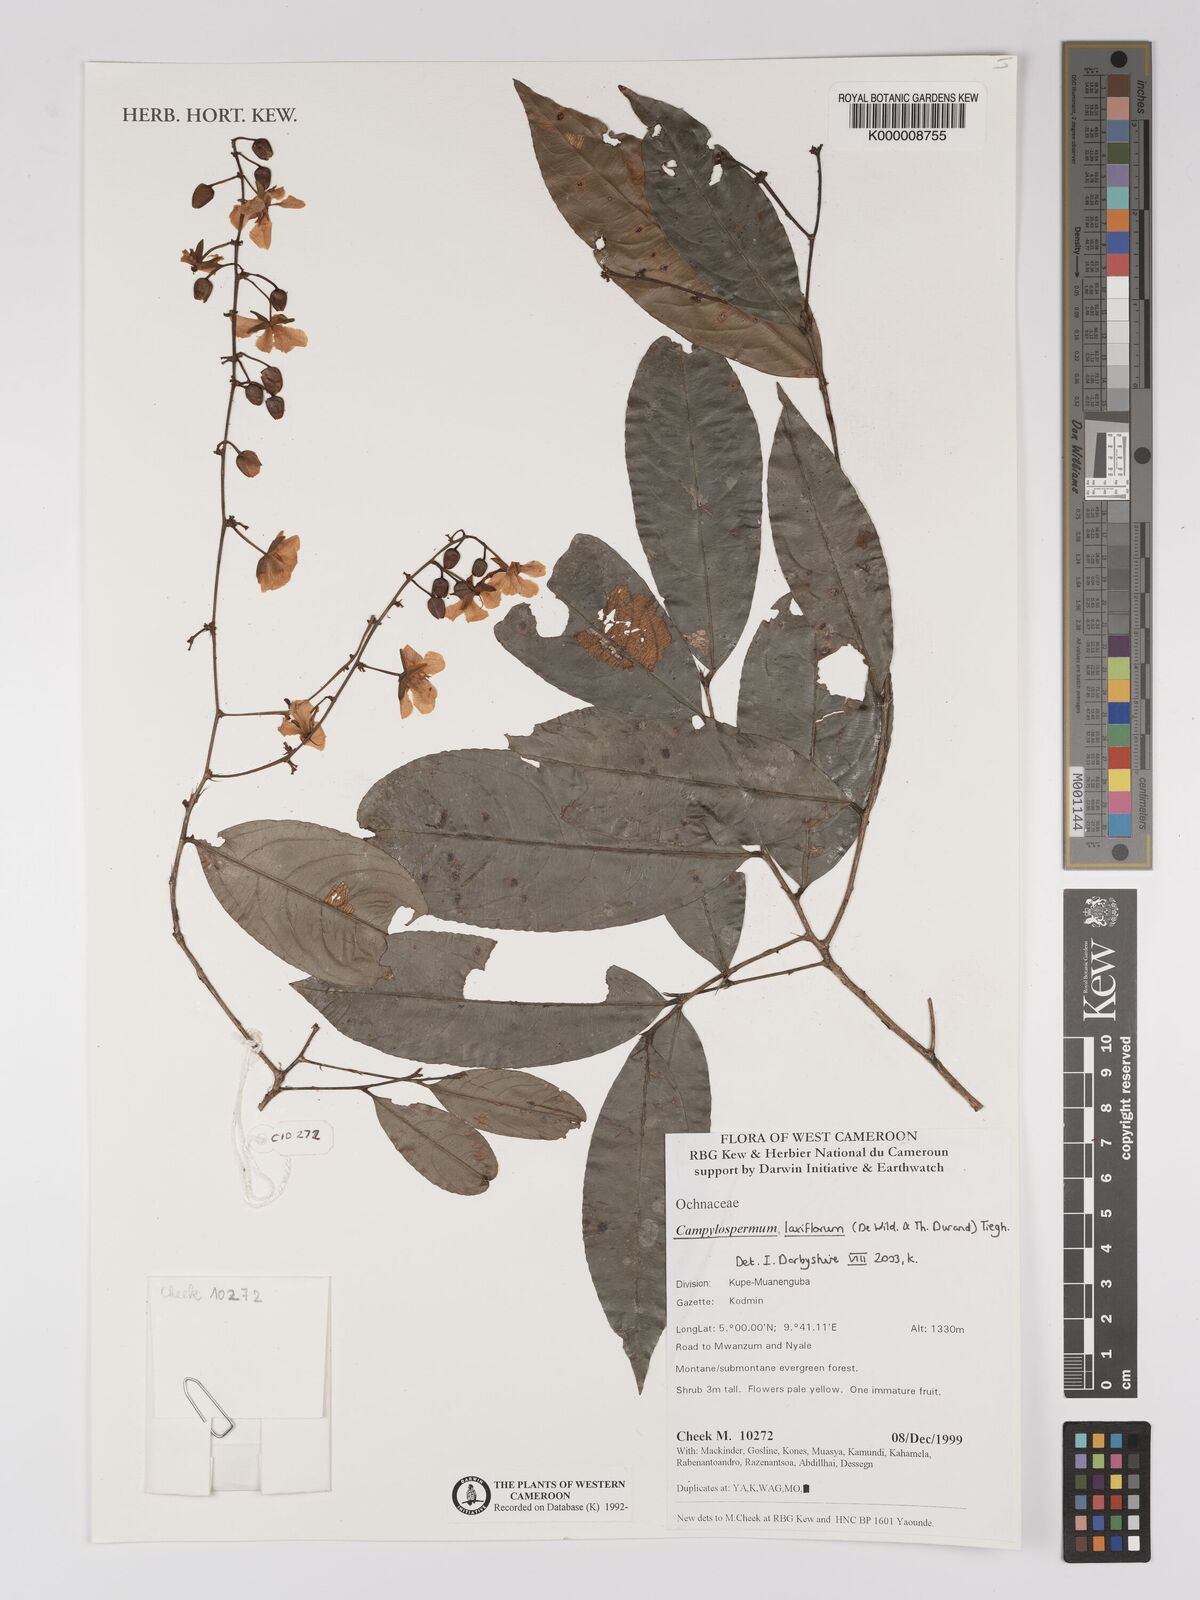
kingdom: Plantae
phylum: Tracheophyta
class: Magnoliopsida
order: Malpighiales
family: Ochnaceae
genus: Campylospermum
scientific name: Campylospermum laxiflorum
